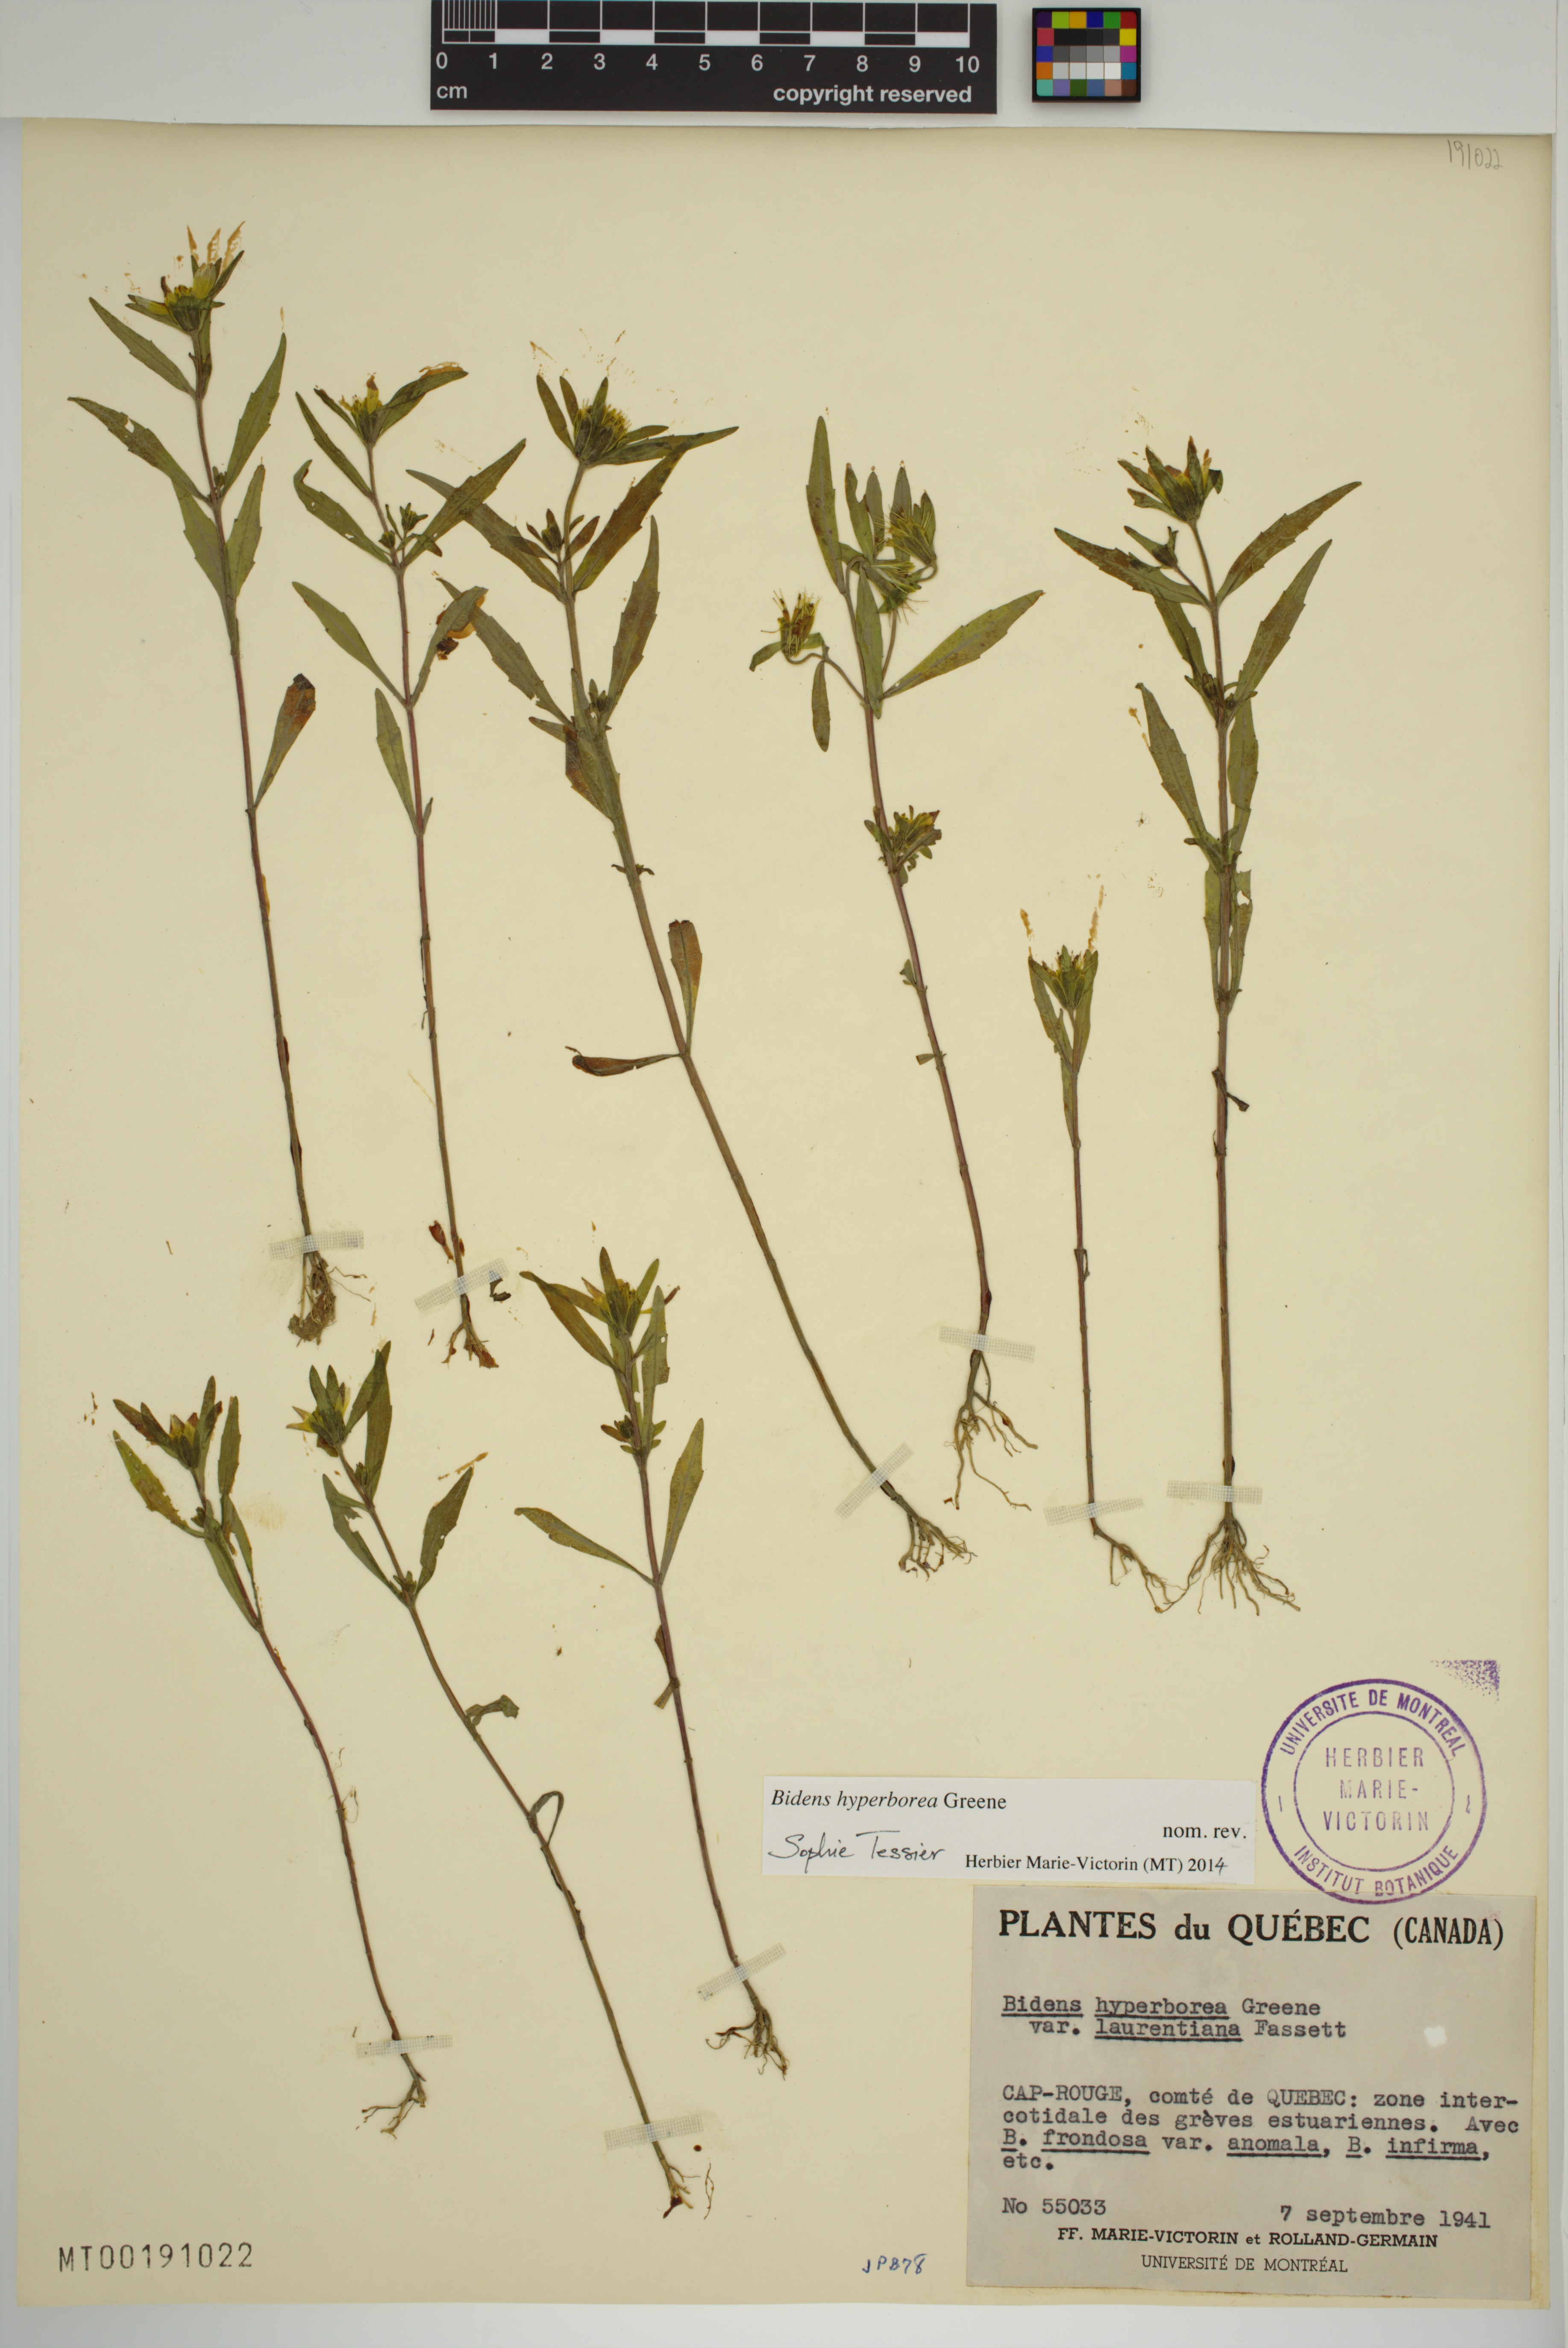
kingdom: Plantae
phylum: Tracheophyta
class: Magnoliopsida
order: Asterales
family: Asteraceae
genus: Bidens
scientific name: Bidens hyperborea
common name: Coastal beggarticks
